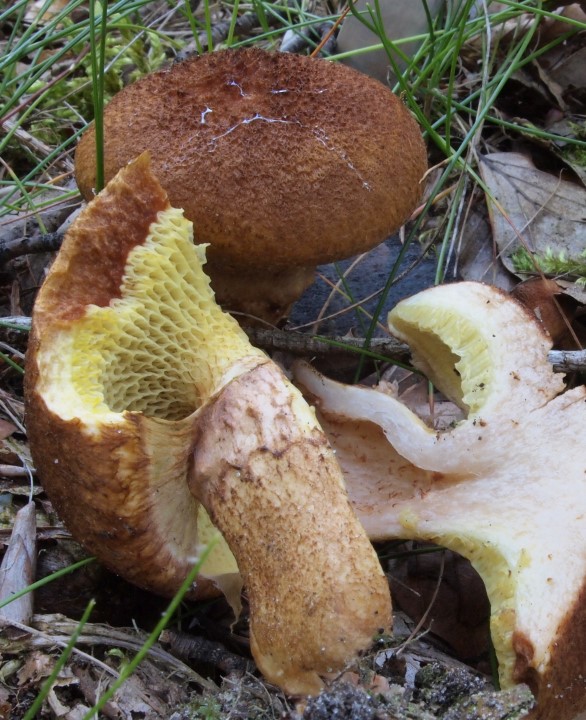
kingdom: Fungi
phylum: Basidiomycota
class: Agaricomycetes
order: Boletales
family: Suillaceae
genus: Suillus
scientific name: Suillus cavipes
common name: hulstokket slimrørhat
